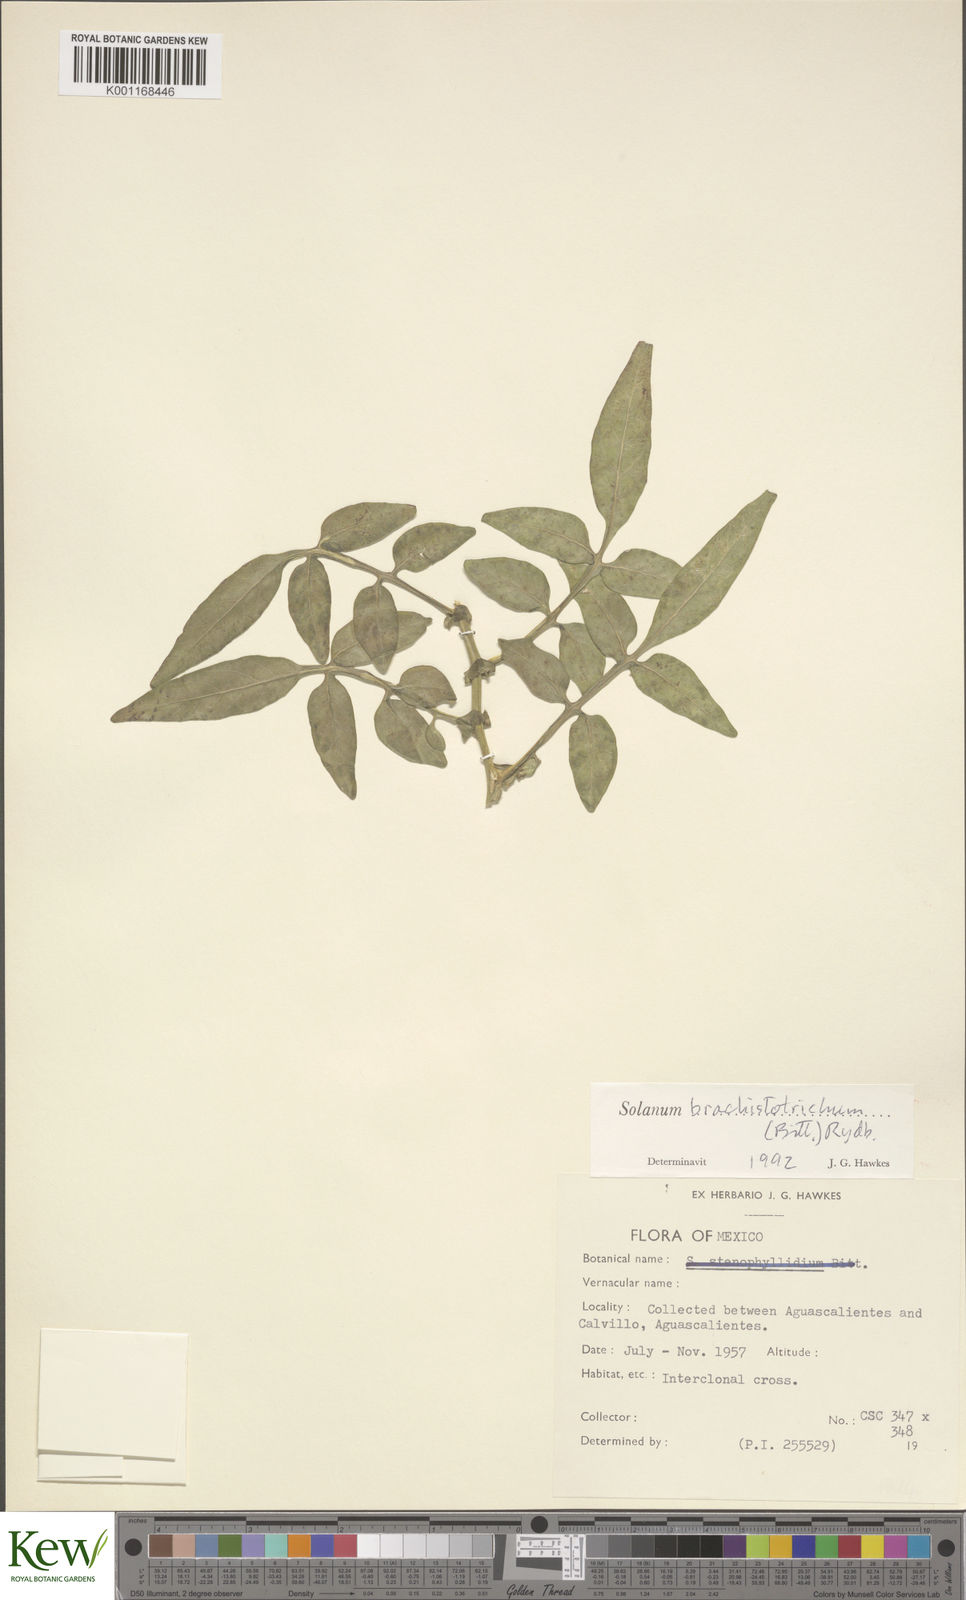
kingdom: Plantae
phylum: Tracheophyta
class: Magnoliopsida
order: Solanales
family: Solanaceae
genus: Solanum
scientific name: Solanum
